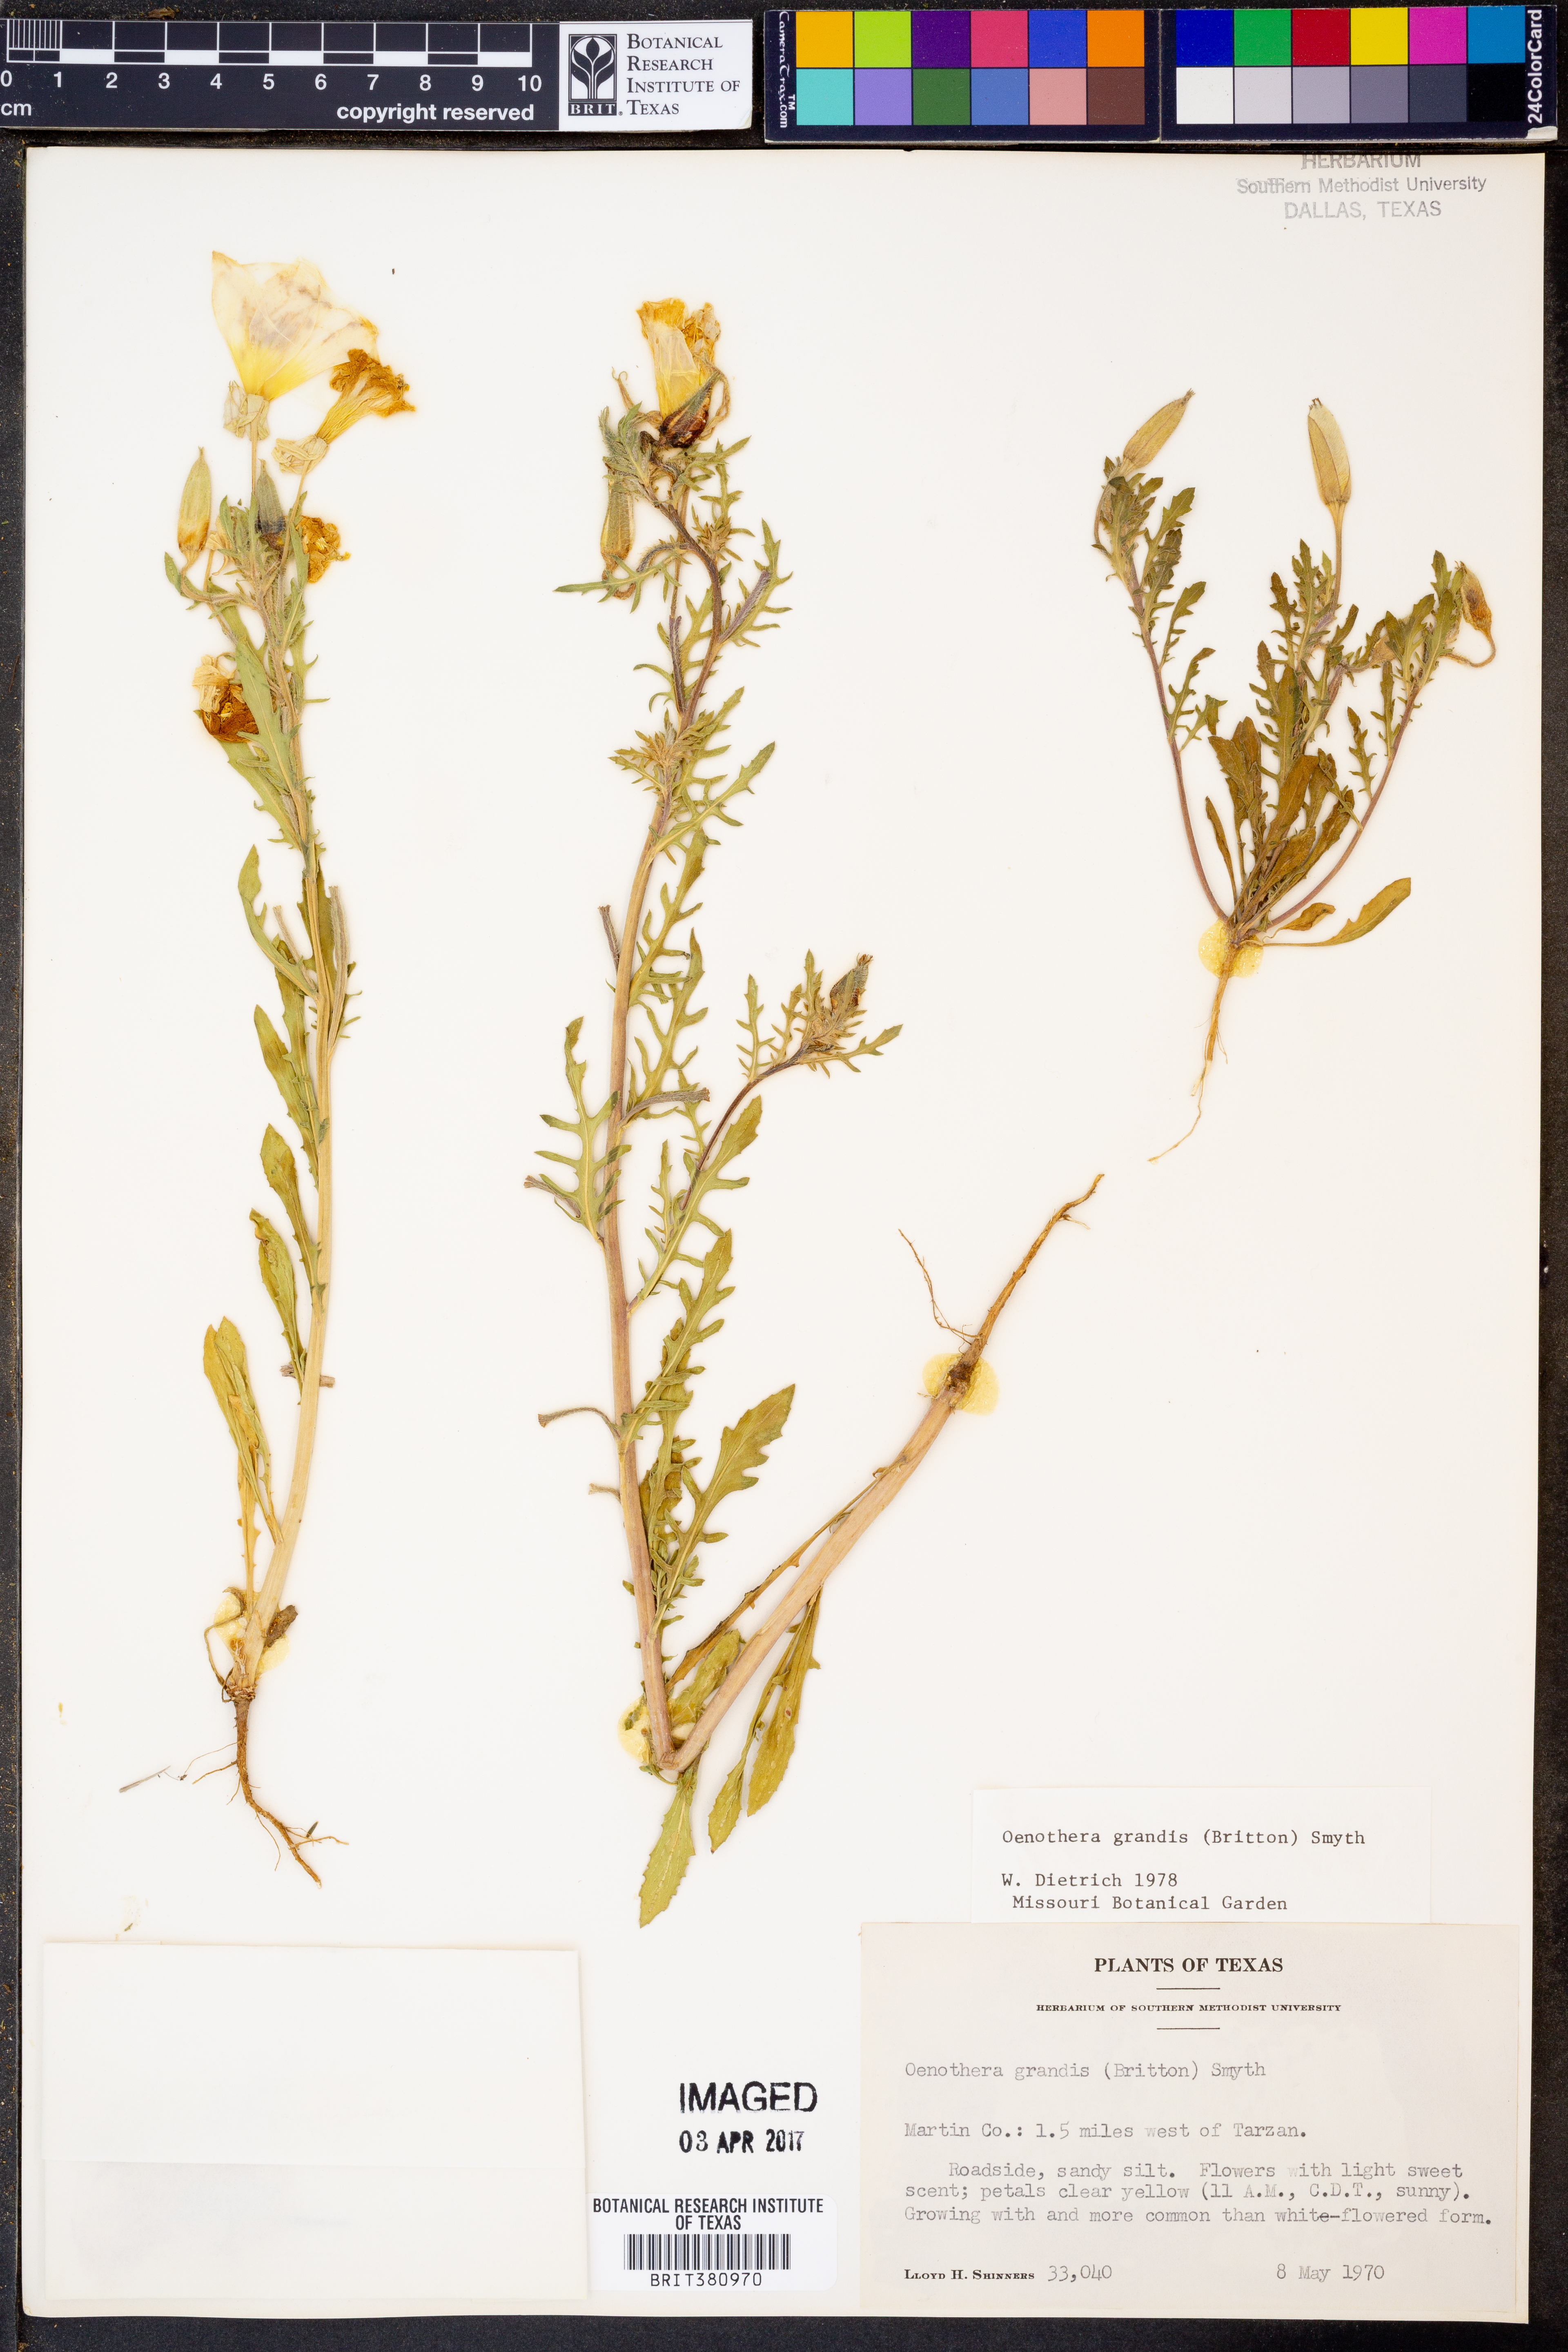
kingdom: Plantae
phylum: Tracheophyta
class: Magnoliopsida
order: Myrtales
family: Onagraceae
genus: Oenothera
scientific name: Oenothera grandis
